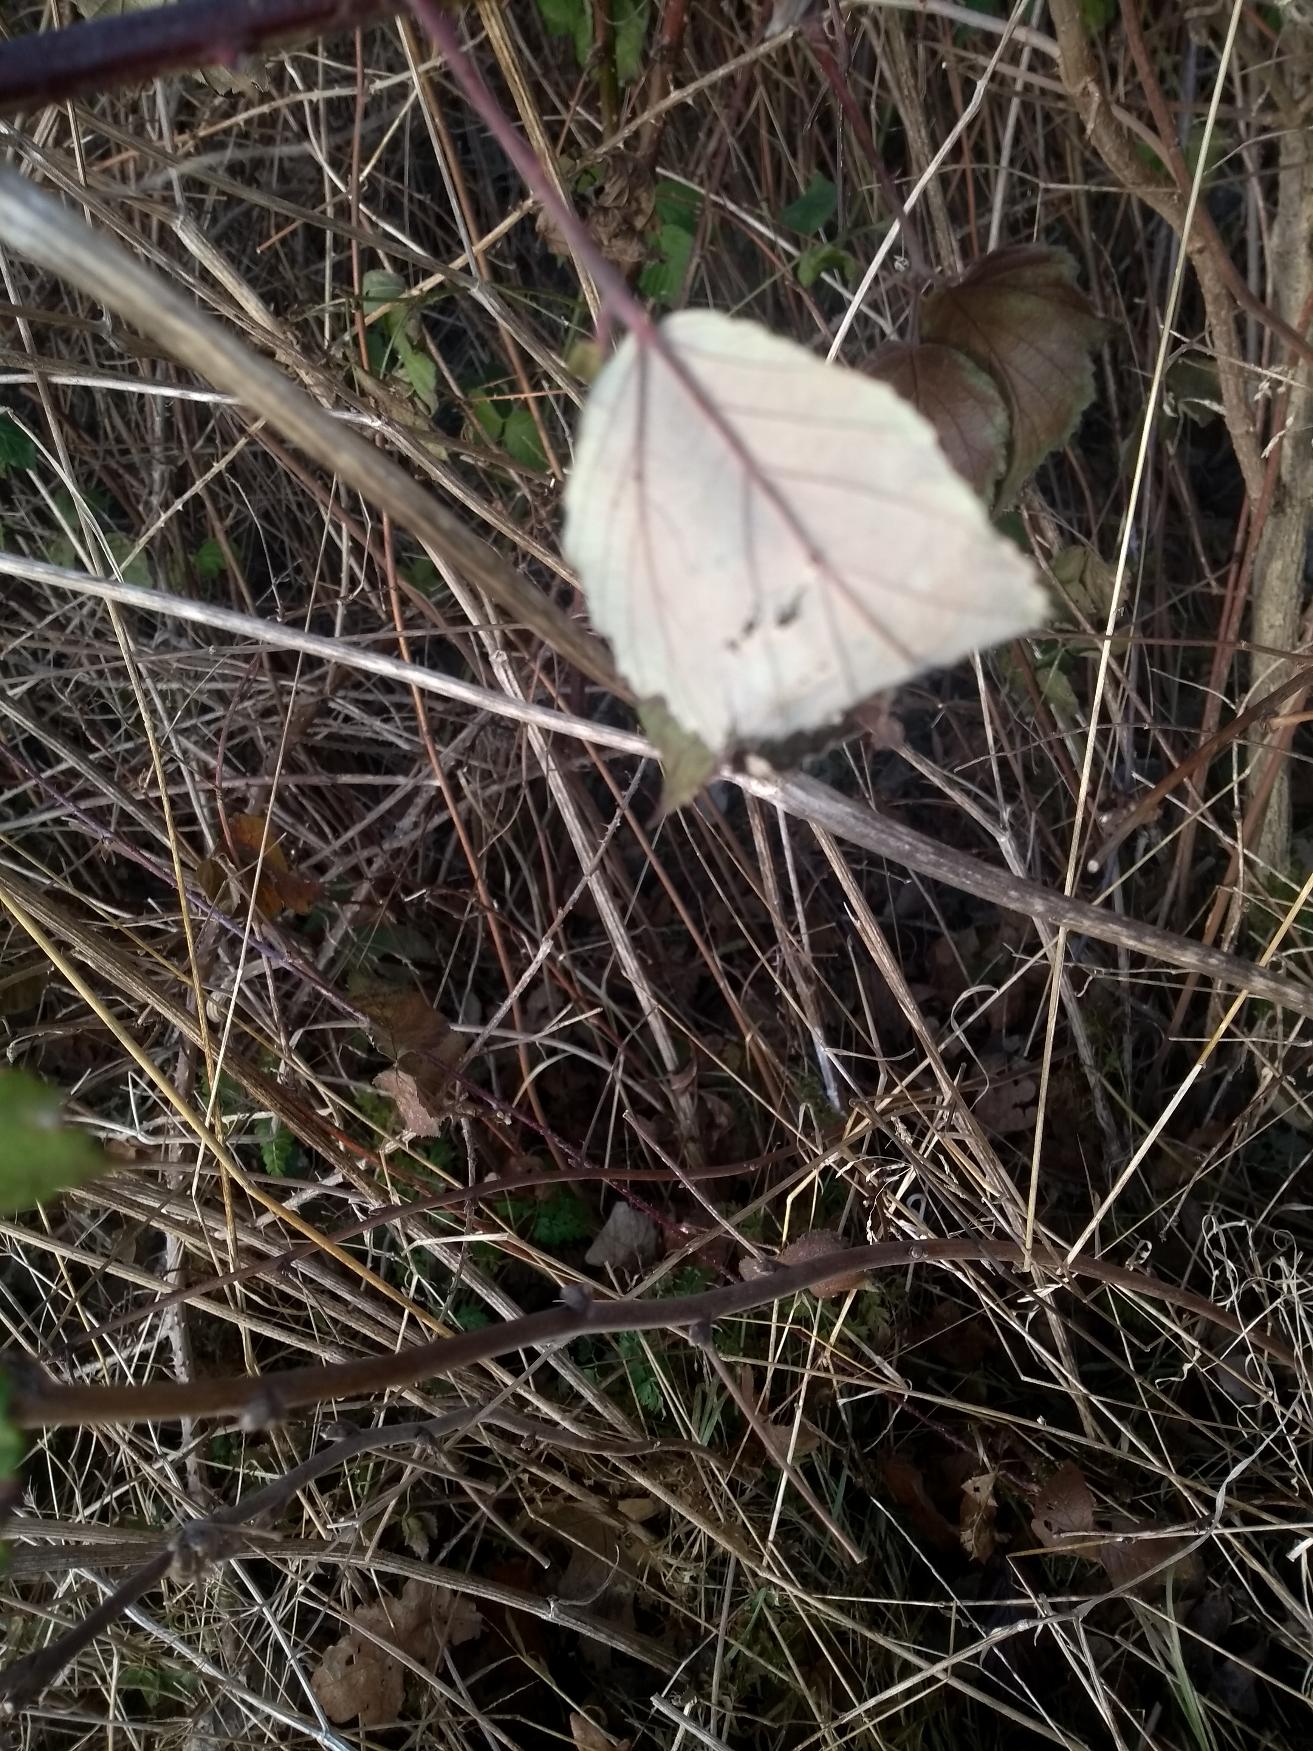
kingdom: Plantae
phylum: Tracheophyta
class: Magnoliopsida
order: Rosales
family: Rosaceae
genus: Rubus
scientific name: Rubus radula
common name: Rasperu brombær
